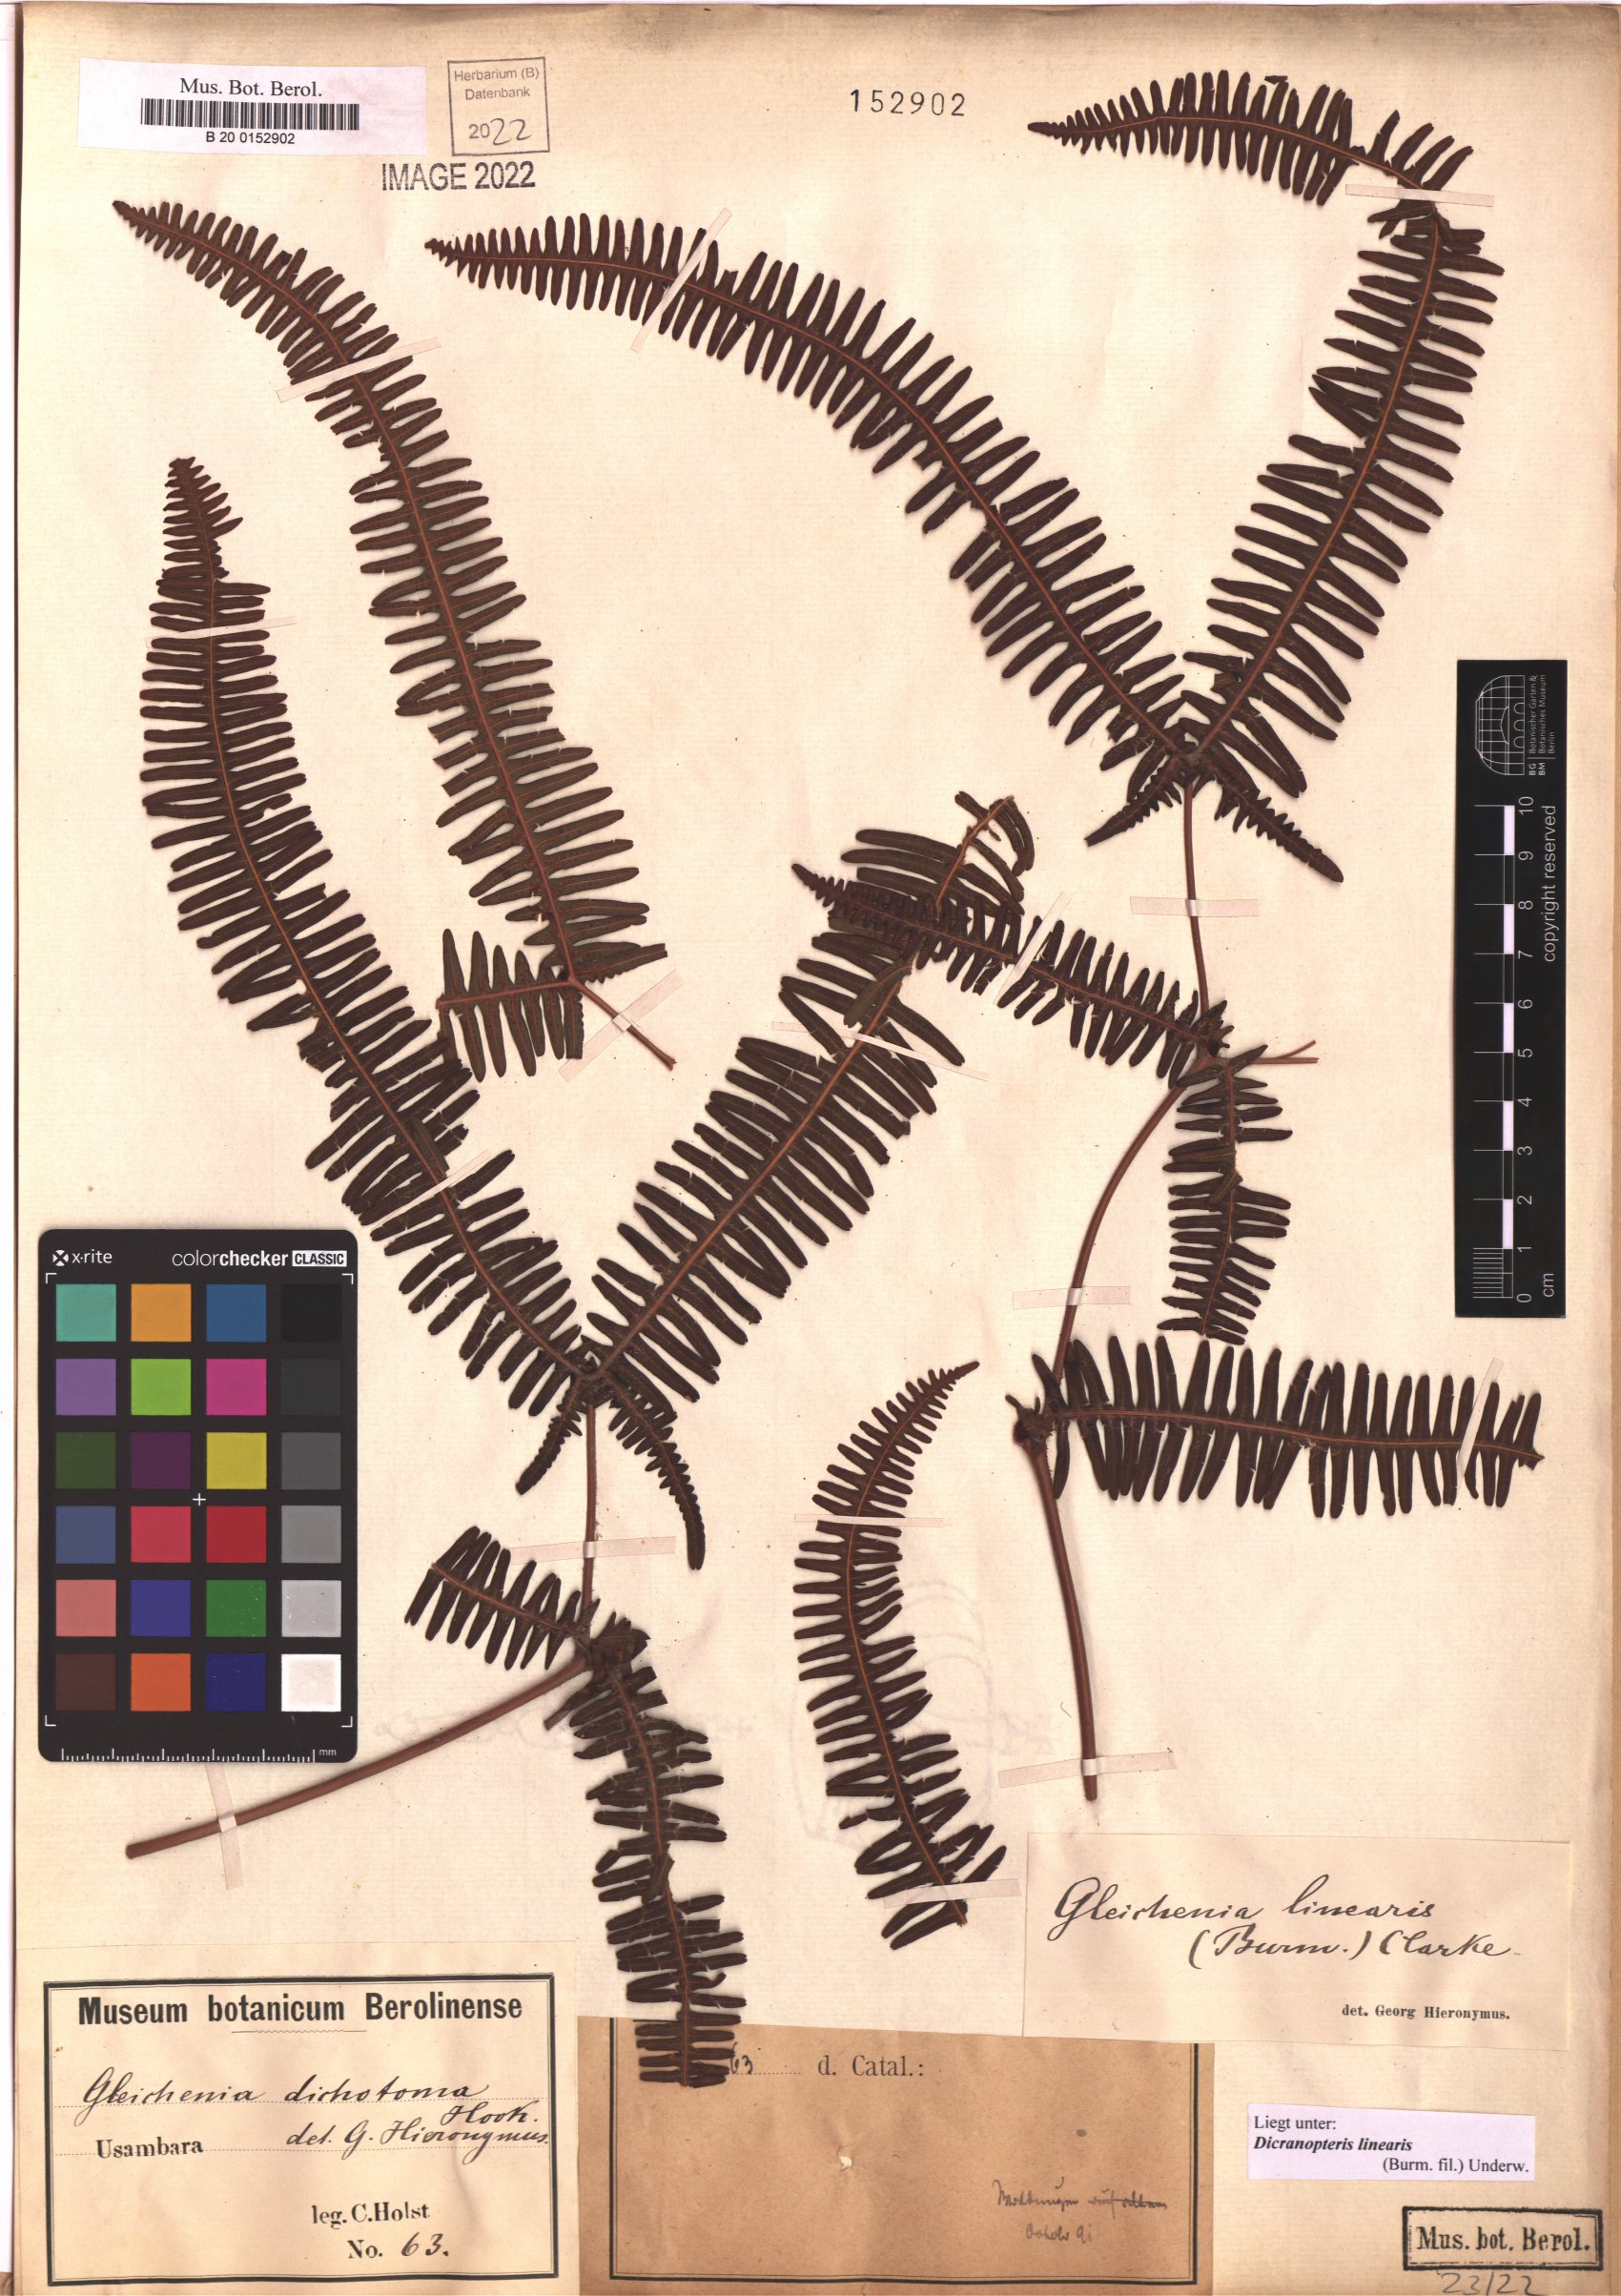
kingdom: Plantae
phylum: Tracheophyta
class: Polypodiopsida
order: Gleicheniales
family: Gleicheniaceae
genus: Dicranopteris
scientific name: Dicranopteris linearis
